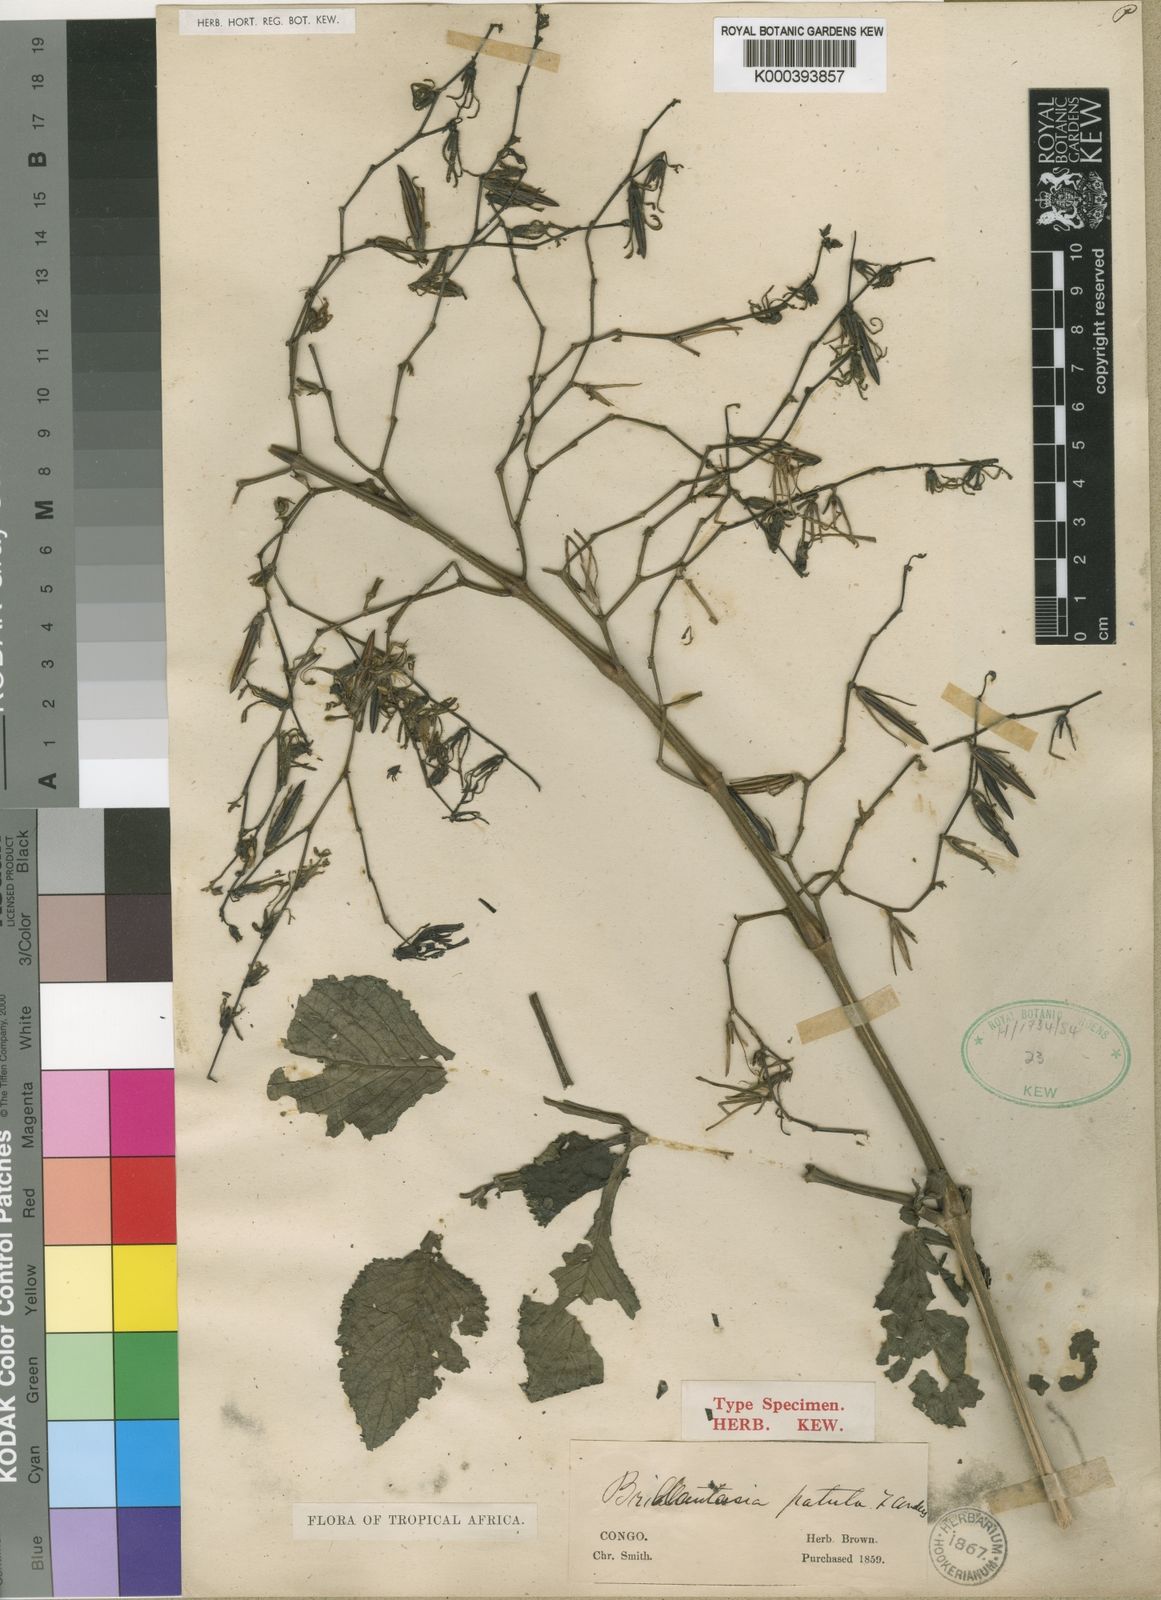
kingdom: Plantae
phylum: Tracheophyta
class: Magnoliopsida
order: Lamiales
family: Acanthaceae
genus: Brillantaisia
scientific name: Brillantaisia owariensis
